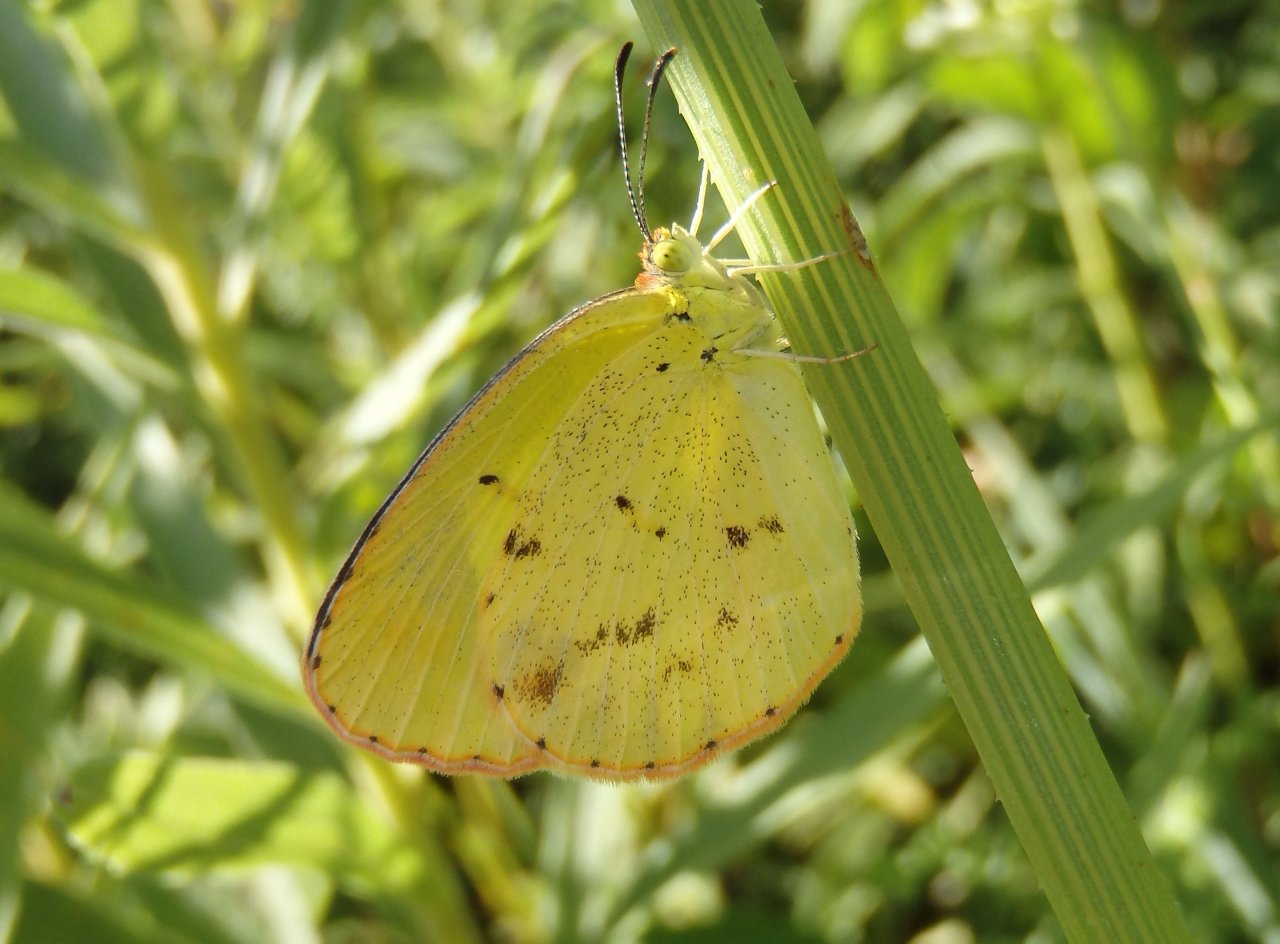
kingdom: Animalia
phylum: Arthropoda
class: Insecta
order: Lepidoptera
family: Pieridae
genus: Pyrisitia
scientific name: Pyrisitia lisa
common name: Little Yellow
